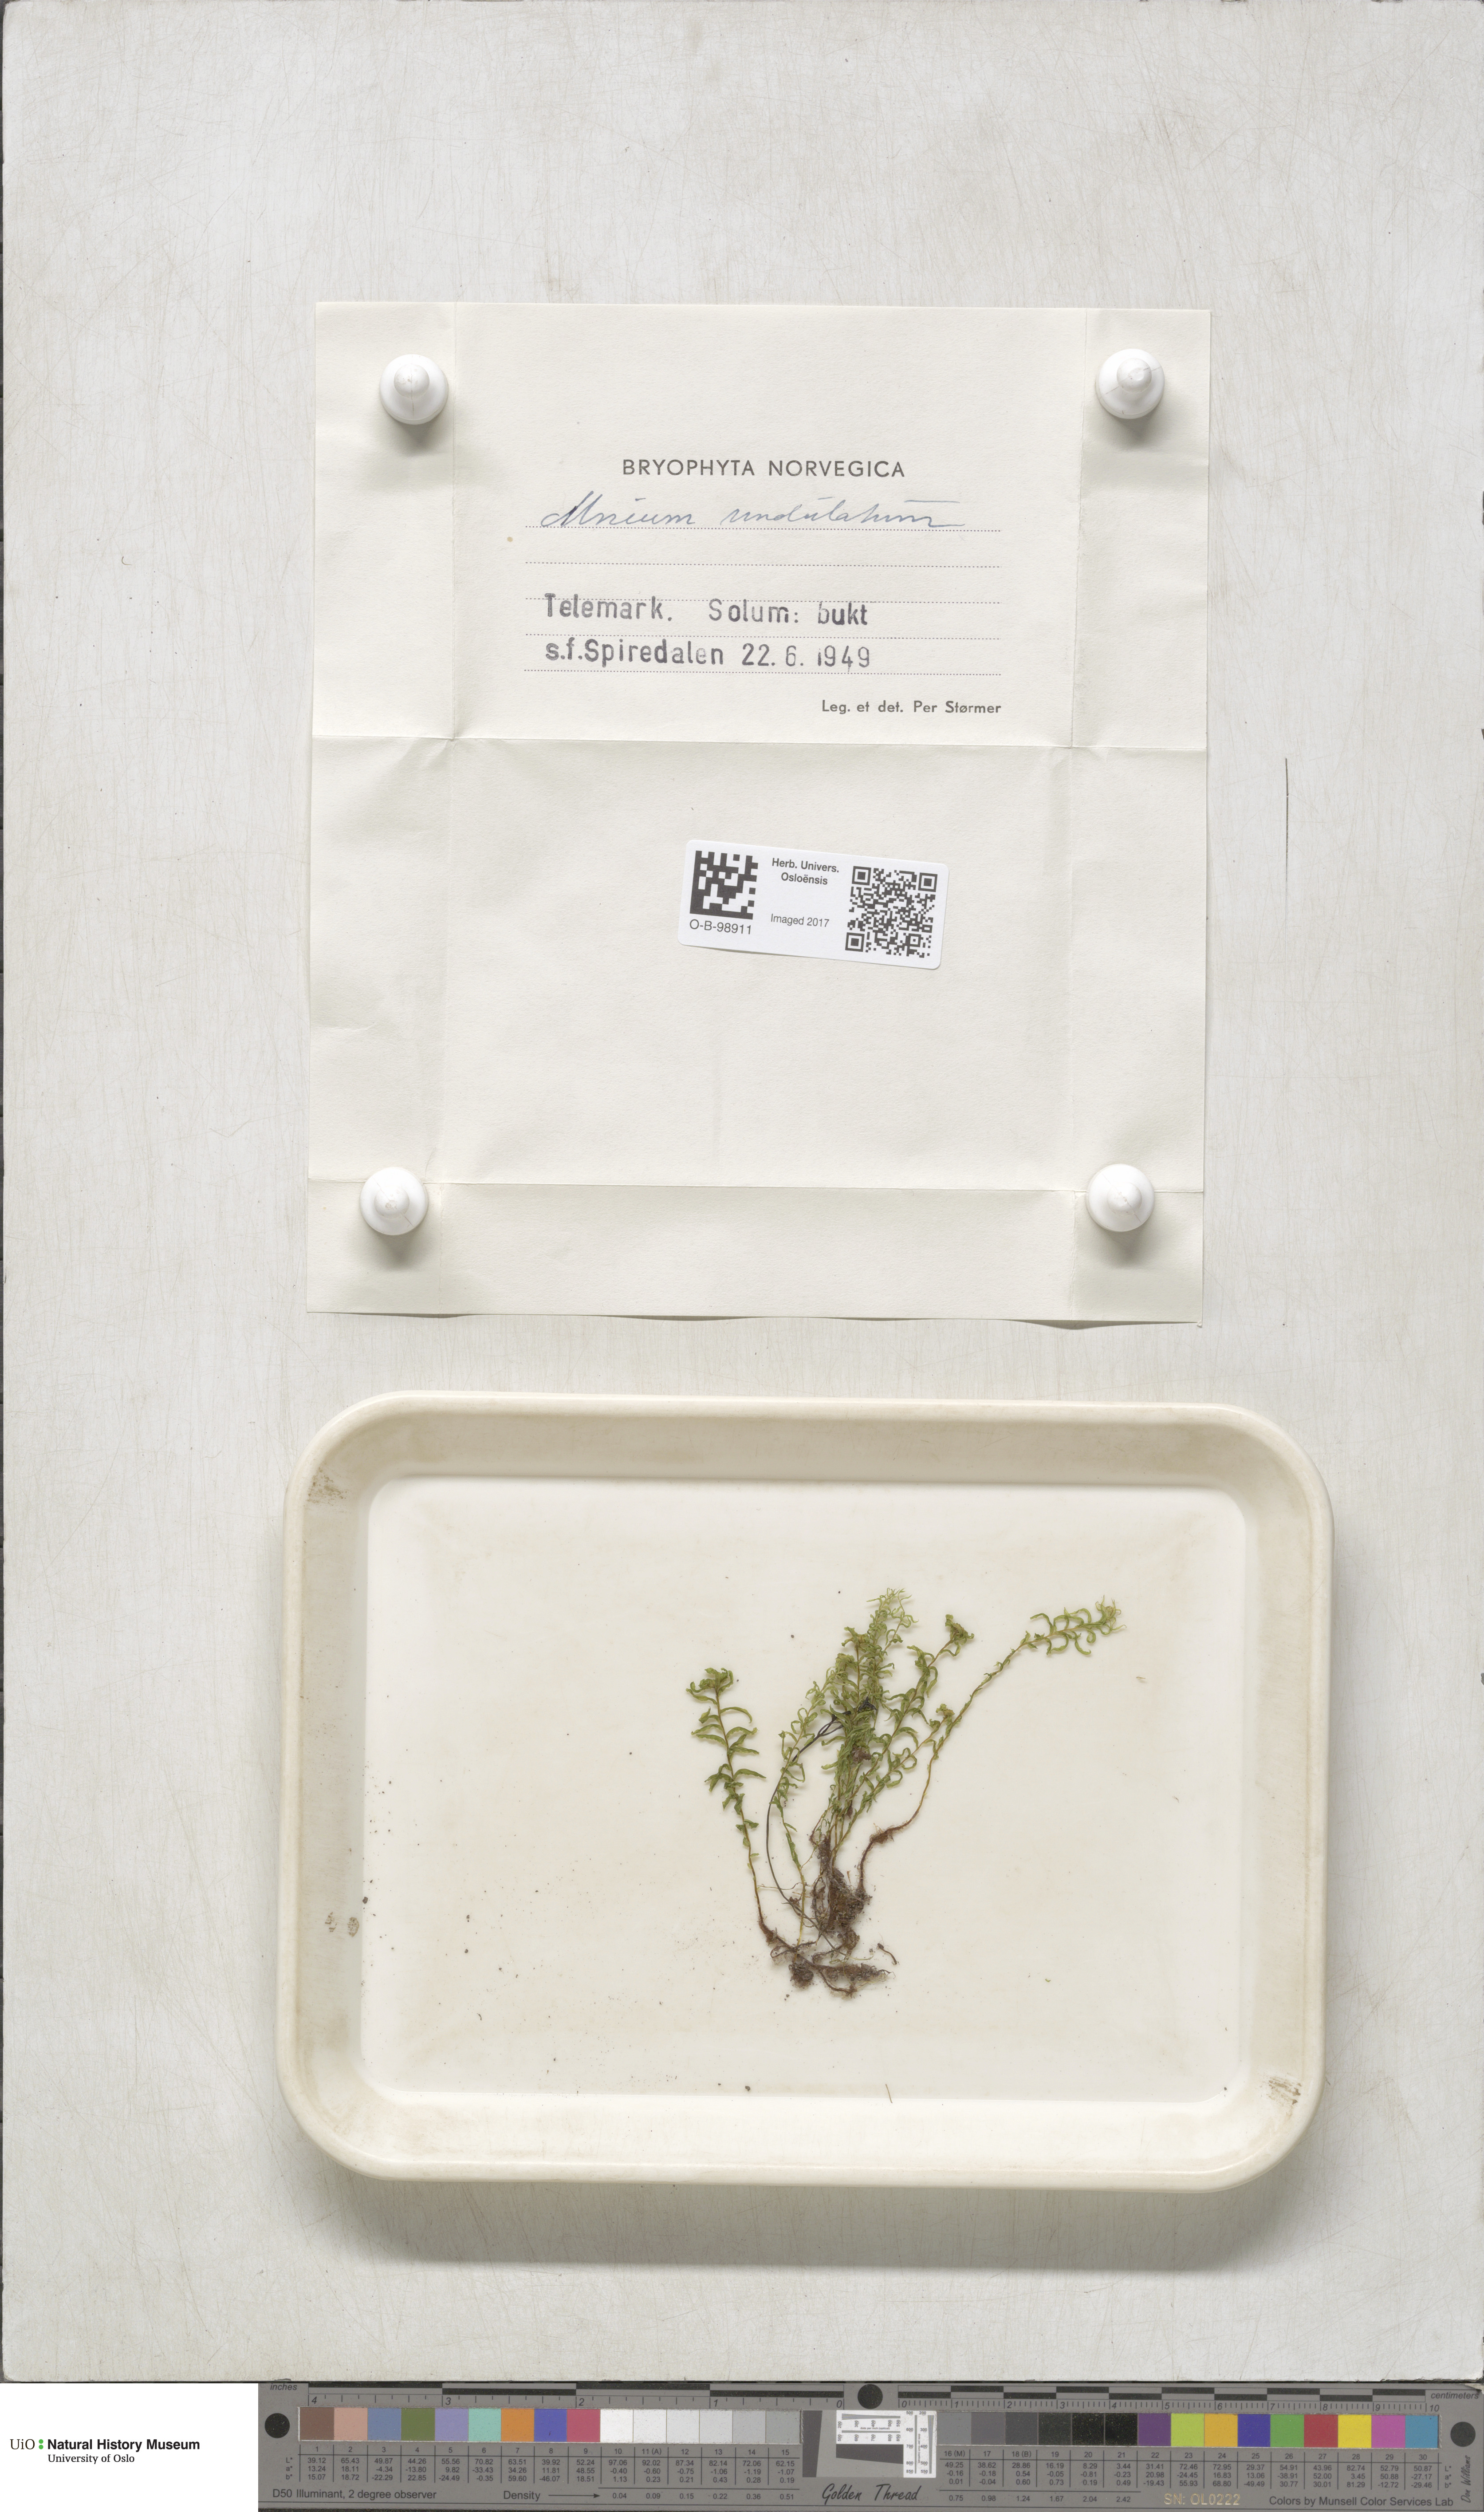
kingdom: Plantae
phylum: Bryophyta
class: Bryopsida
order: Bryales
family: Mniaceae
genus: Plagiomnium
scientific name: Plagiomnium undulatum
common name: Hart's-tongue thyme-moss
